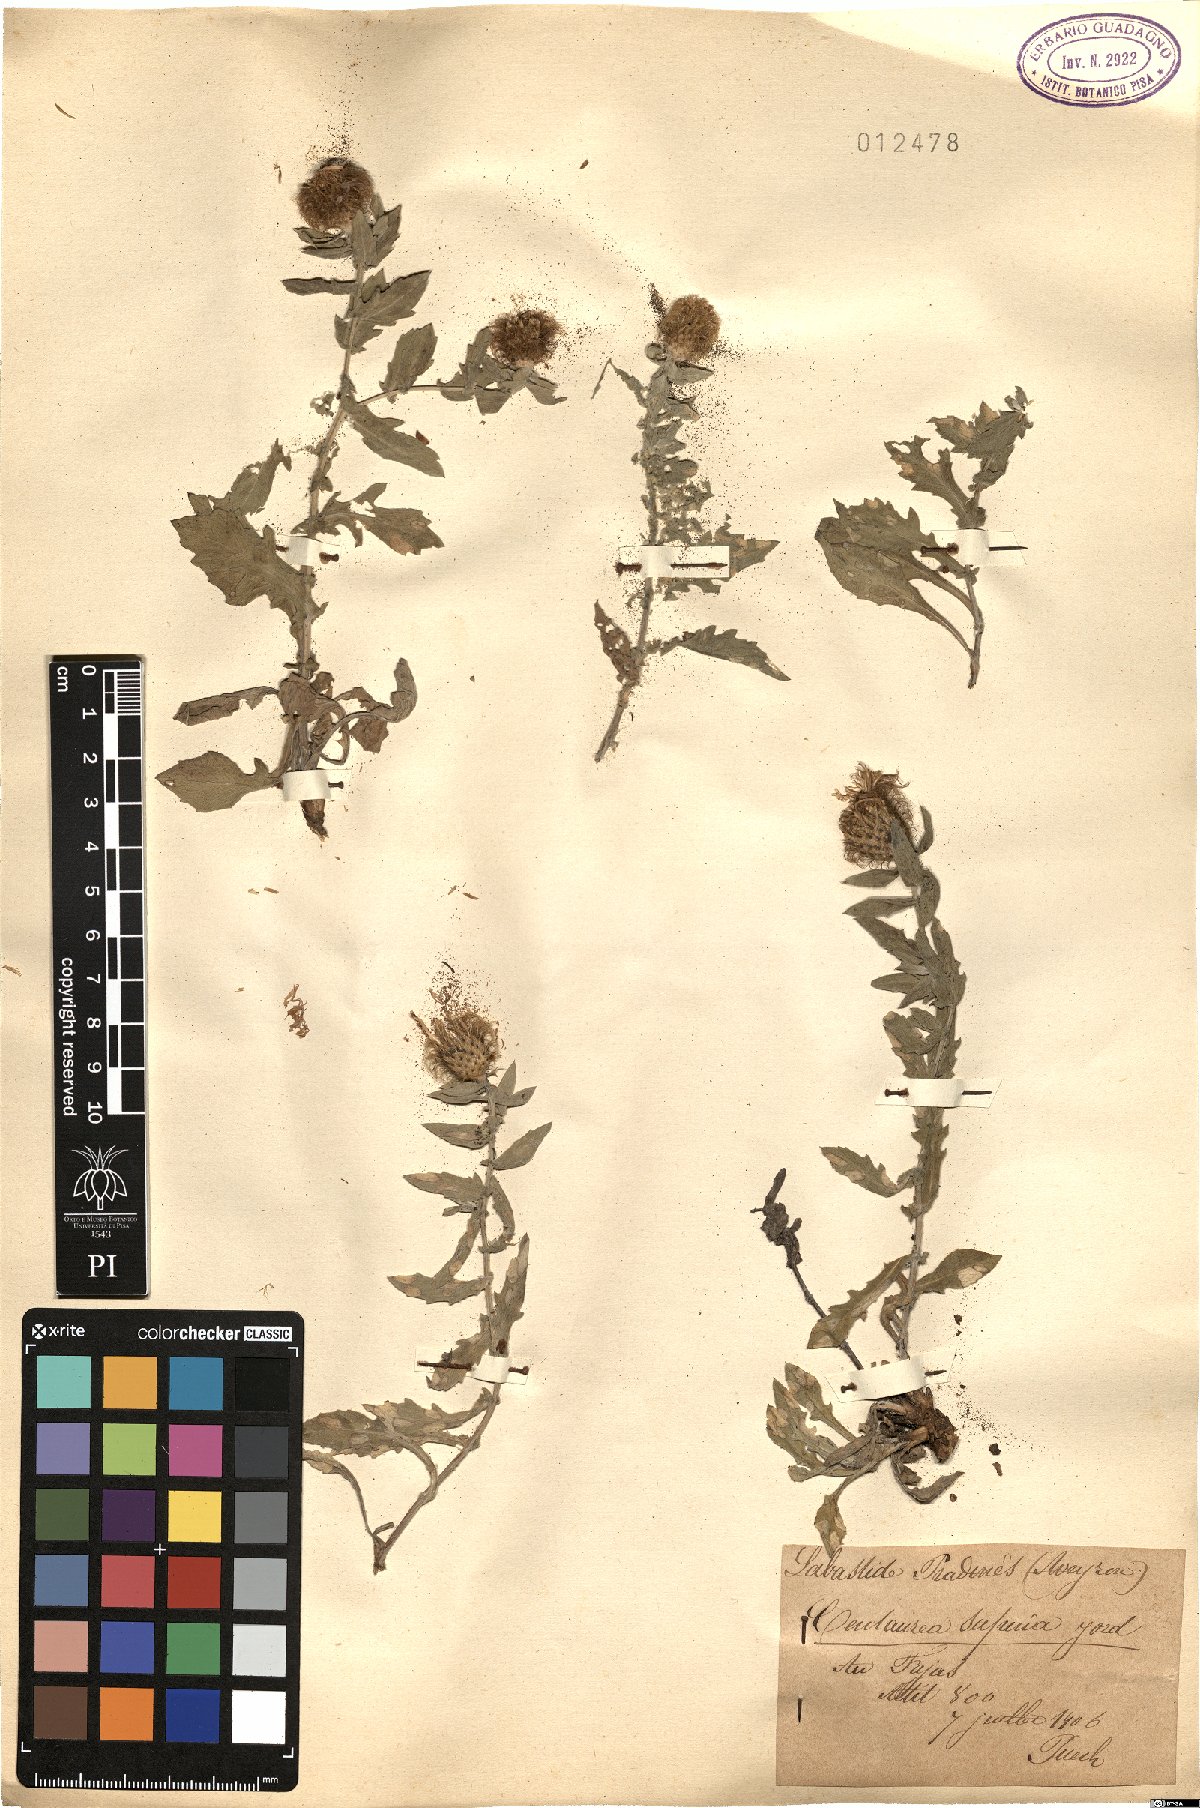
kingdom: Plantae
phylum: Tracheophyta
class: Magnoliopsida
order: Asterales
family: Asteraceae
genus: Centaurea
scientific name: Centaurea pectinata
